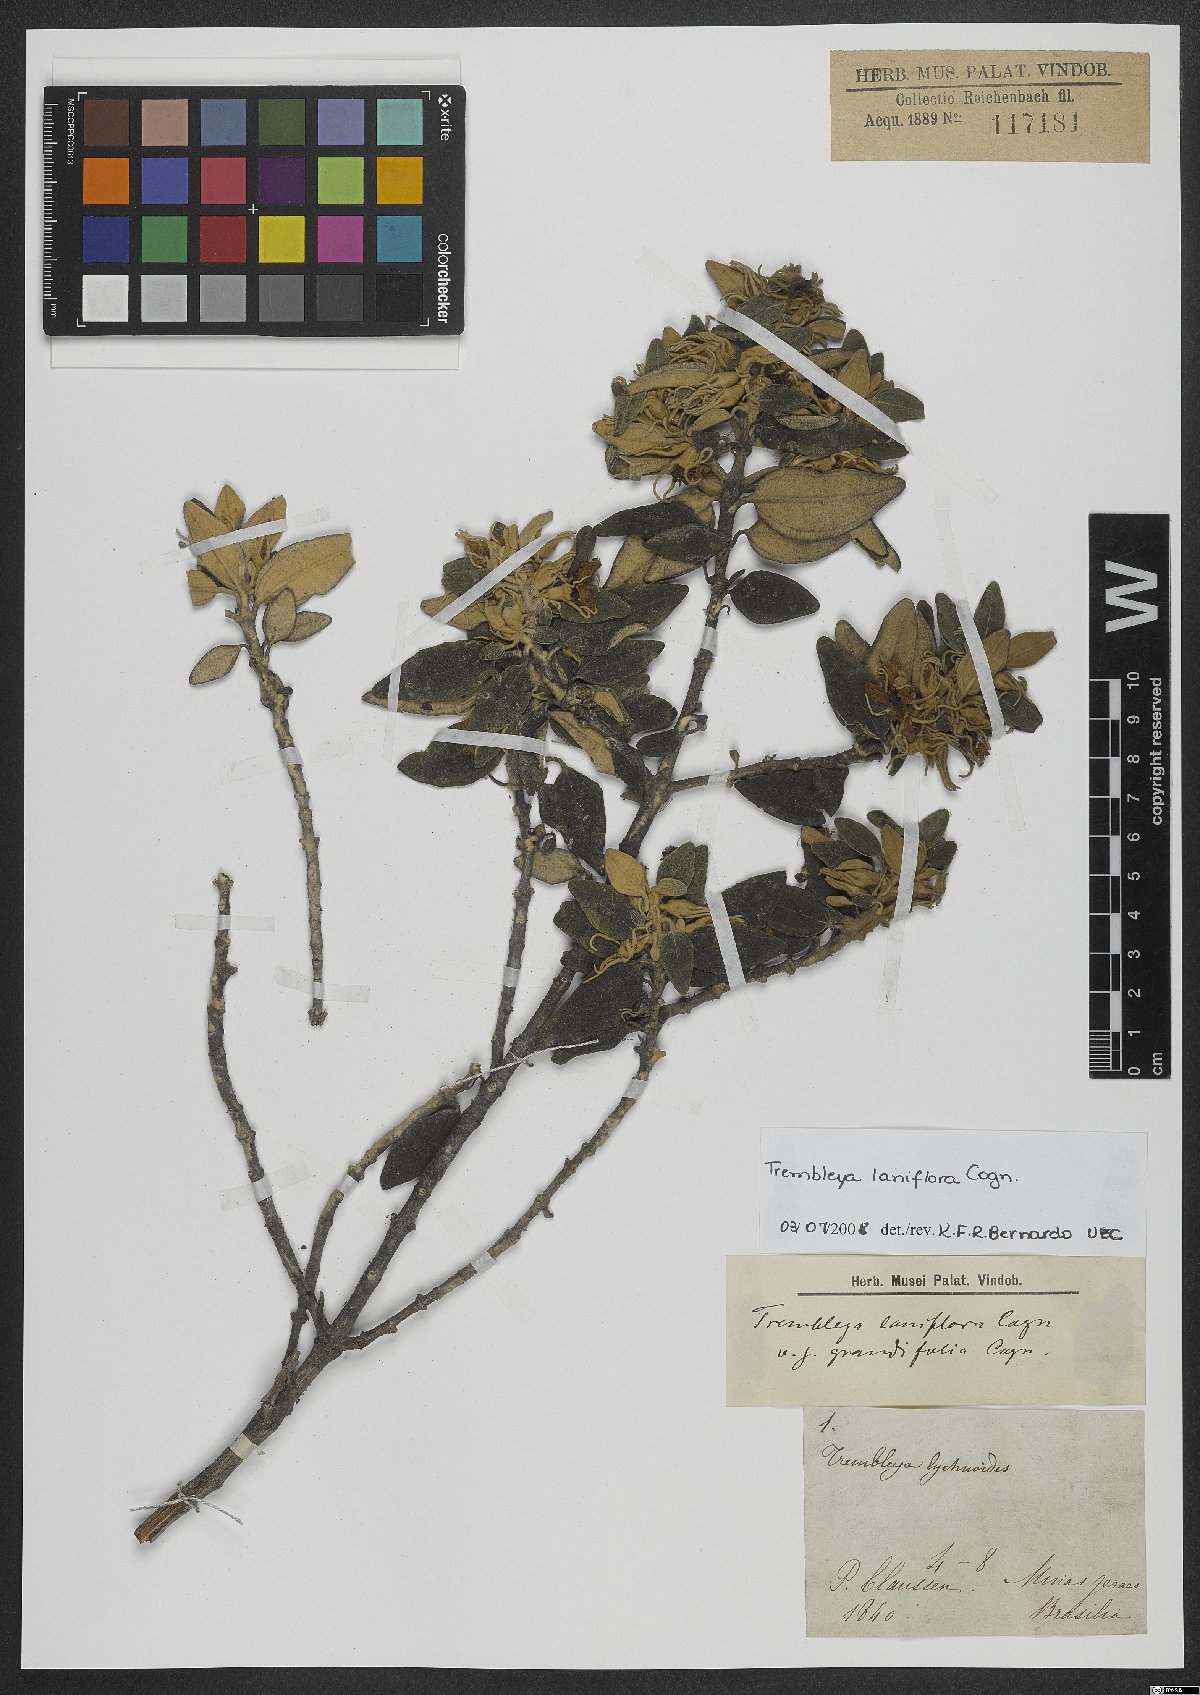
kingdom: Plantae
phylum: Tracheophyta
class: Magnoliopsida
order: Myrtales
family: Melastomataceae
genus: Microlicia
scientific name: Microlicia laniflora
